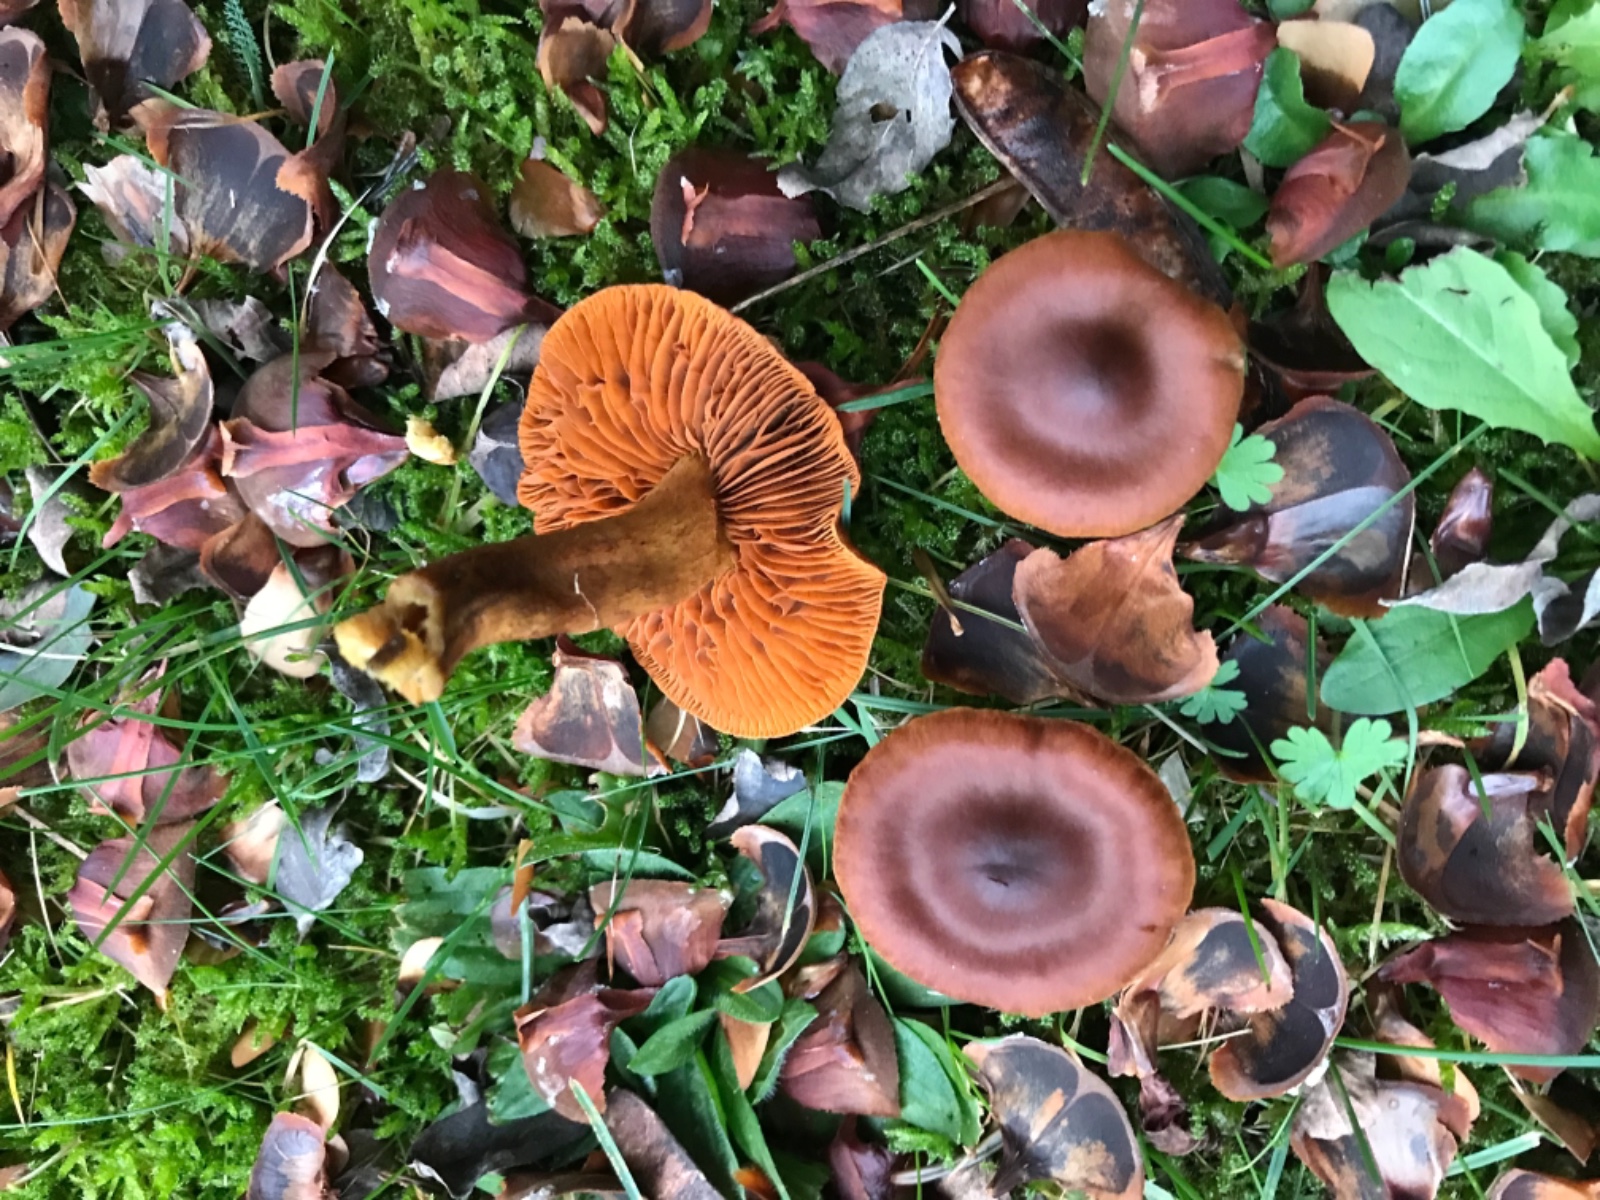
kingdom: Fungi
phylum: Basidiomycota
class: Agaricomycetes
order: Agaricales
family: Cortinariaceae
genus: Cortinarius
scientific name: Cortinarius
